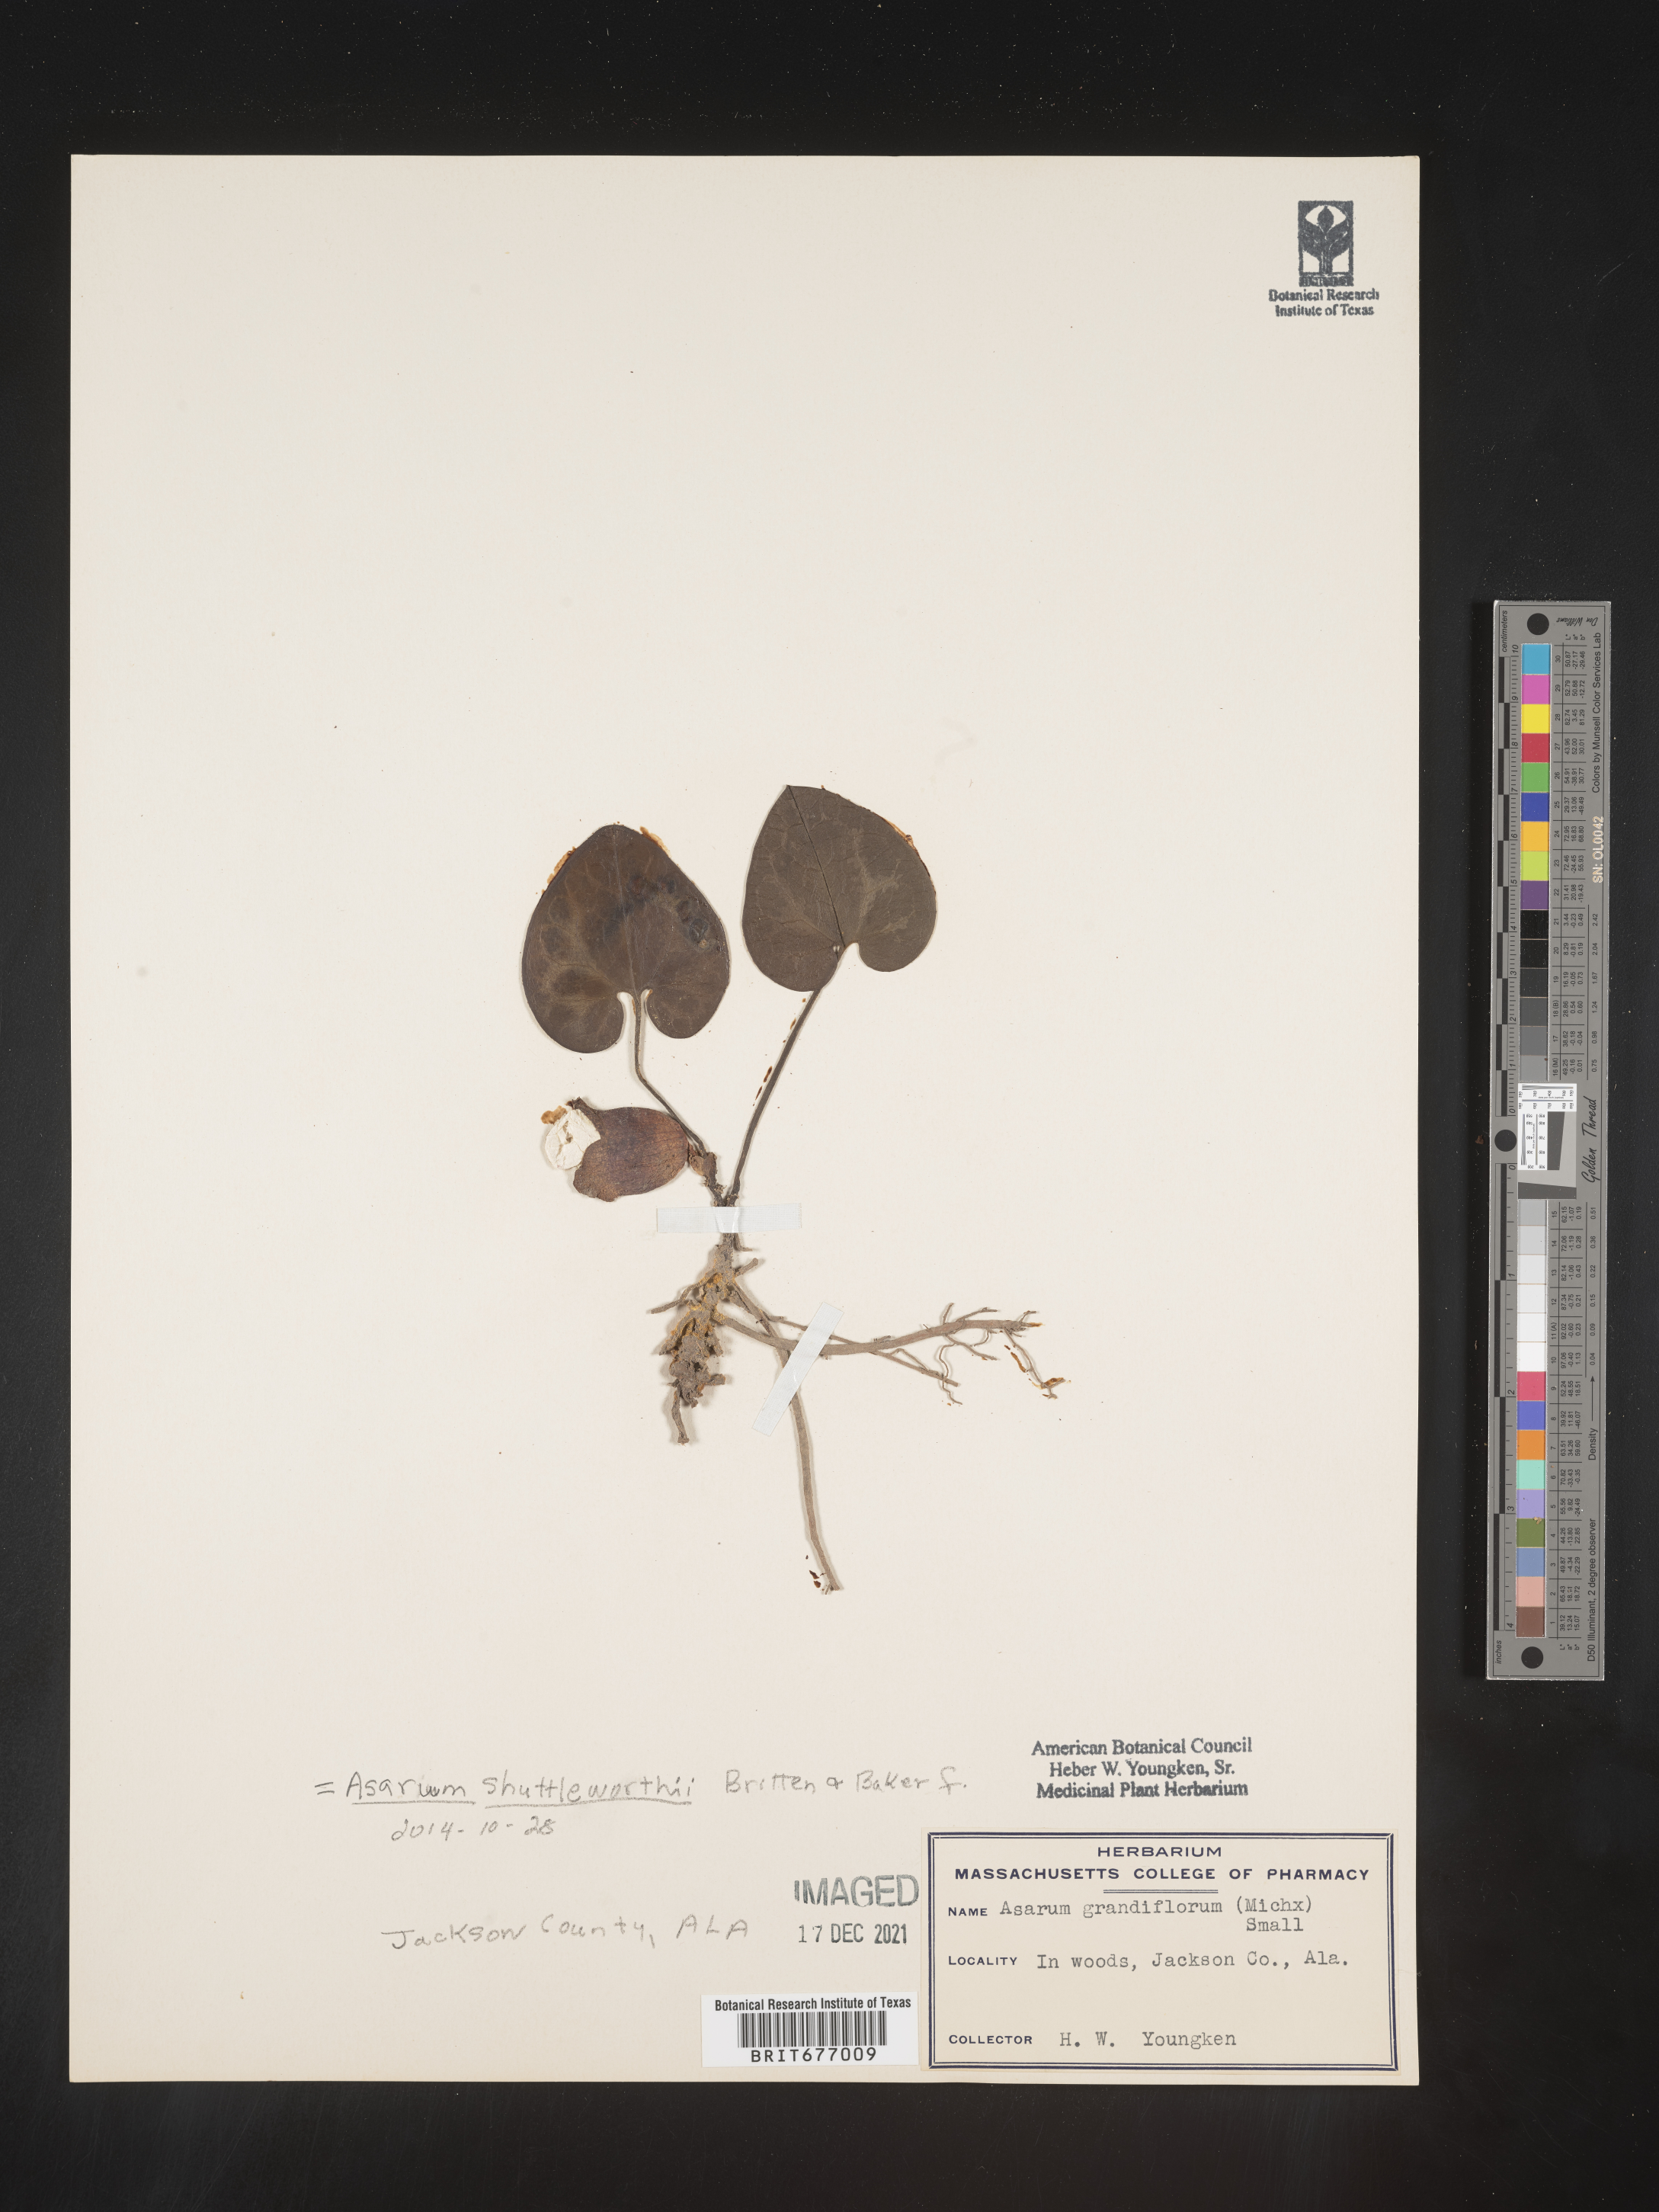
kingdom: Plantae
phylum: Tracheophyta
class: Magnoliopsida
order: Piperales
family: Aristolochiaceae
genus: Asarum
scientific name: Asarum
